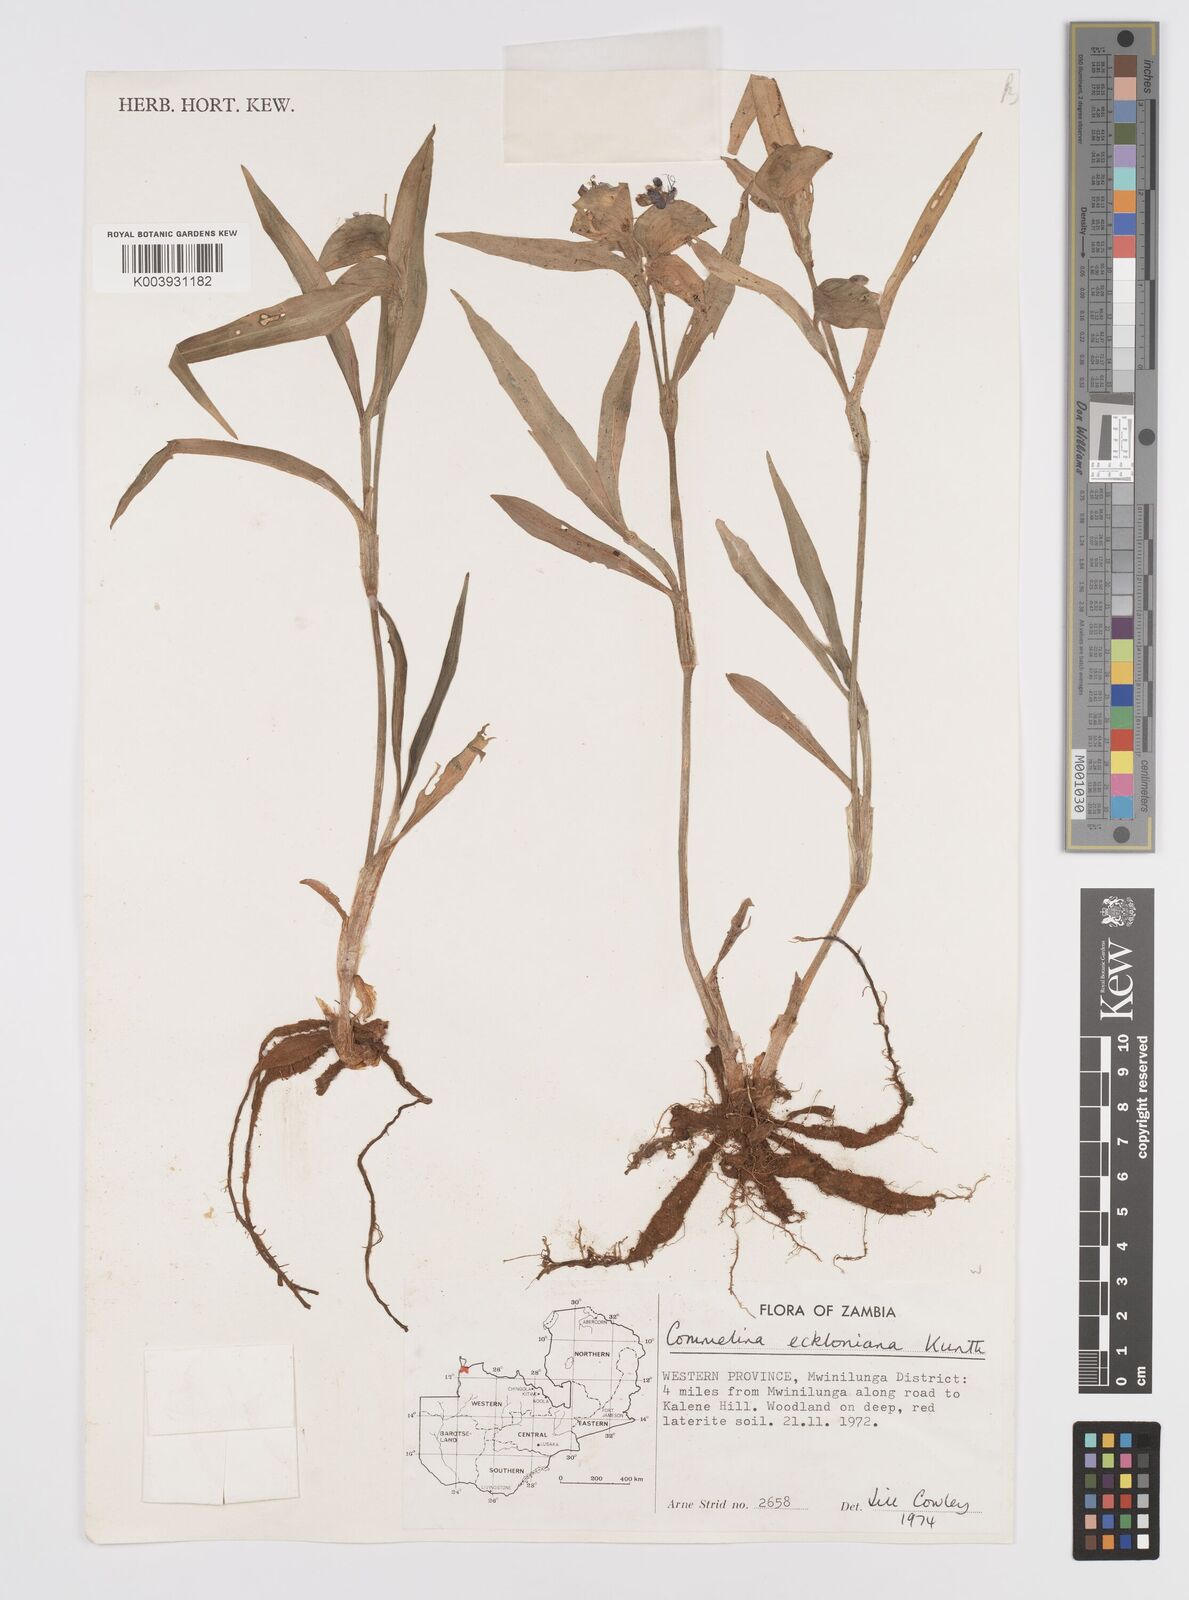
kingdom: Plantae
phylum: Tracheophyta
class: Liliopsida
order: Commelinales
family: Commelinaceae
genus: Commelina
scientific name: Commelina eckloniana
